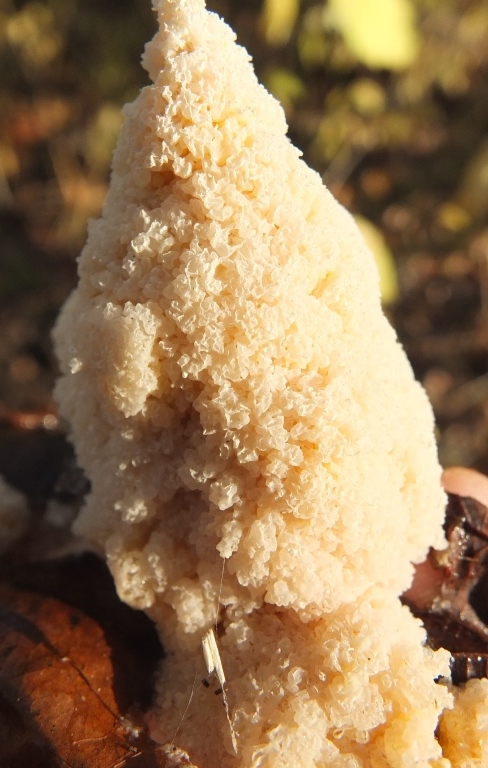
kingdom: Protozoa
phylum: Mycetozoa
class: Myxomycetes
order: Physarales
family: Physaraceae
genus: Didymium
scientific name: Didymium
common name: urteskum
